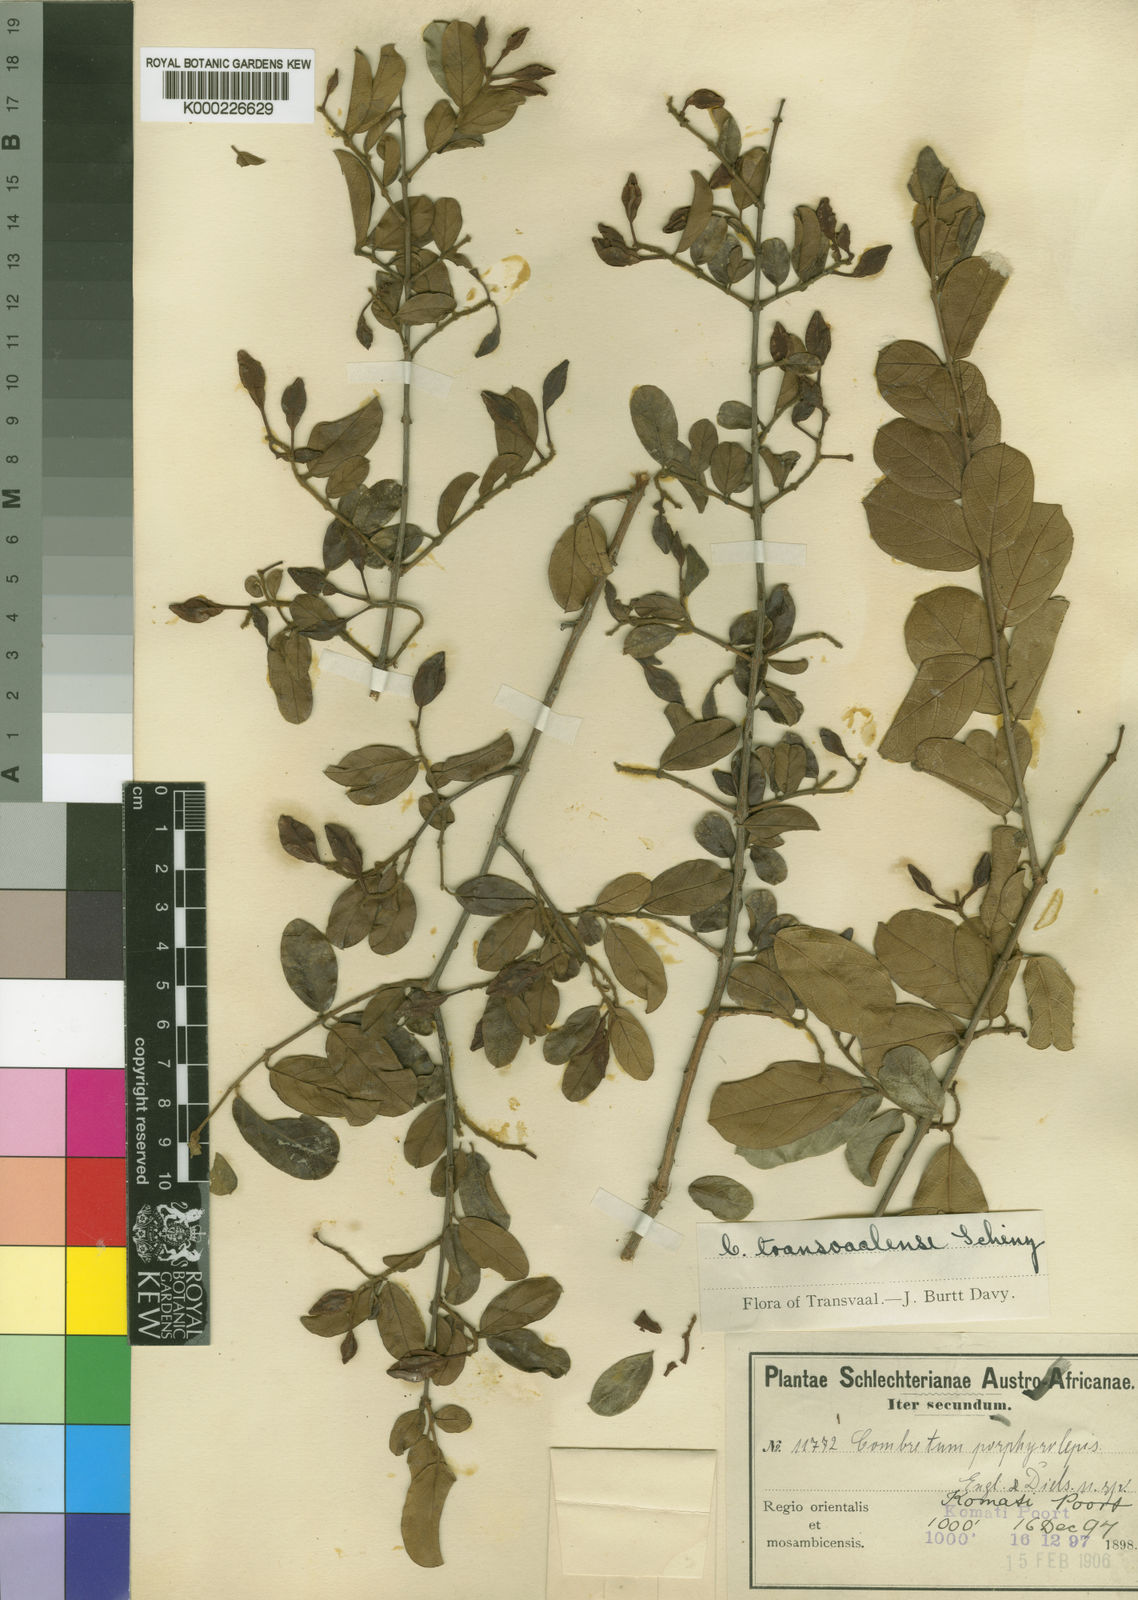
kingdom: Plantae
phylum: Tracheophyta
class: Magnoliopsida
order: Myrtales
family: Combretaceae
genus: Combretum
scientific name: Combretum hereroense
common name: Russet bushwillow
